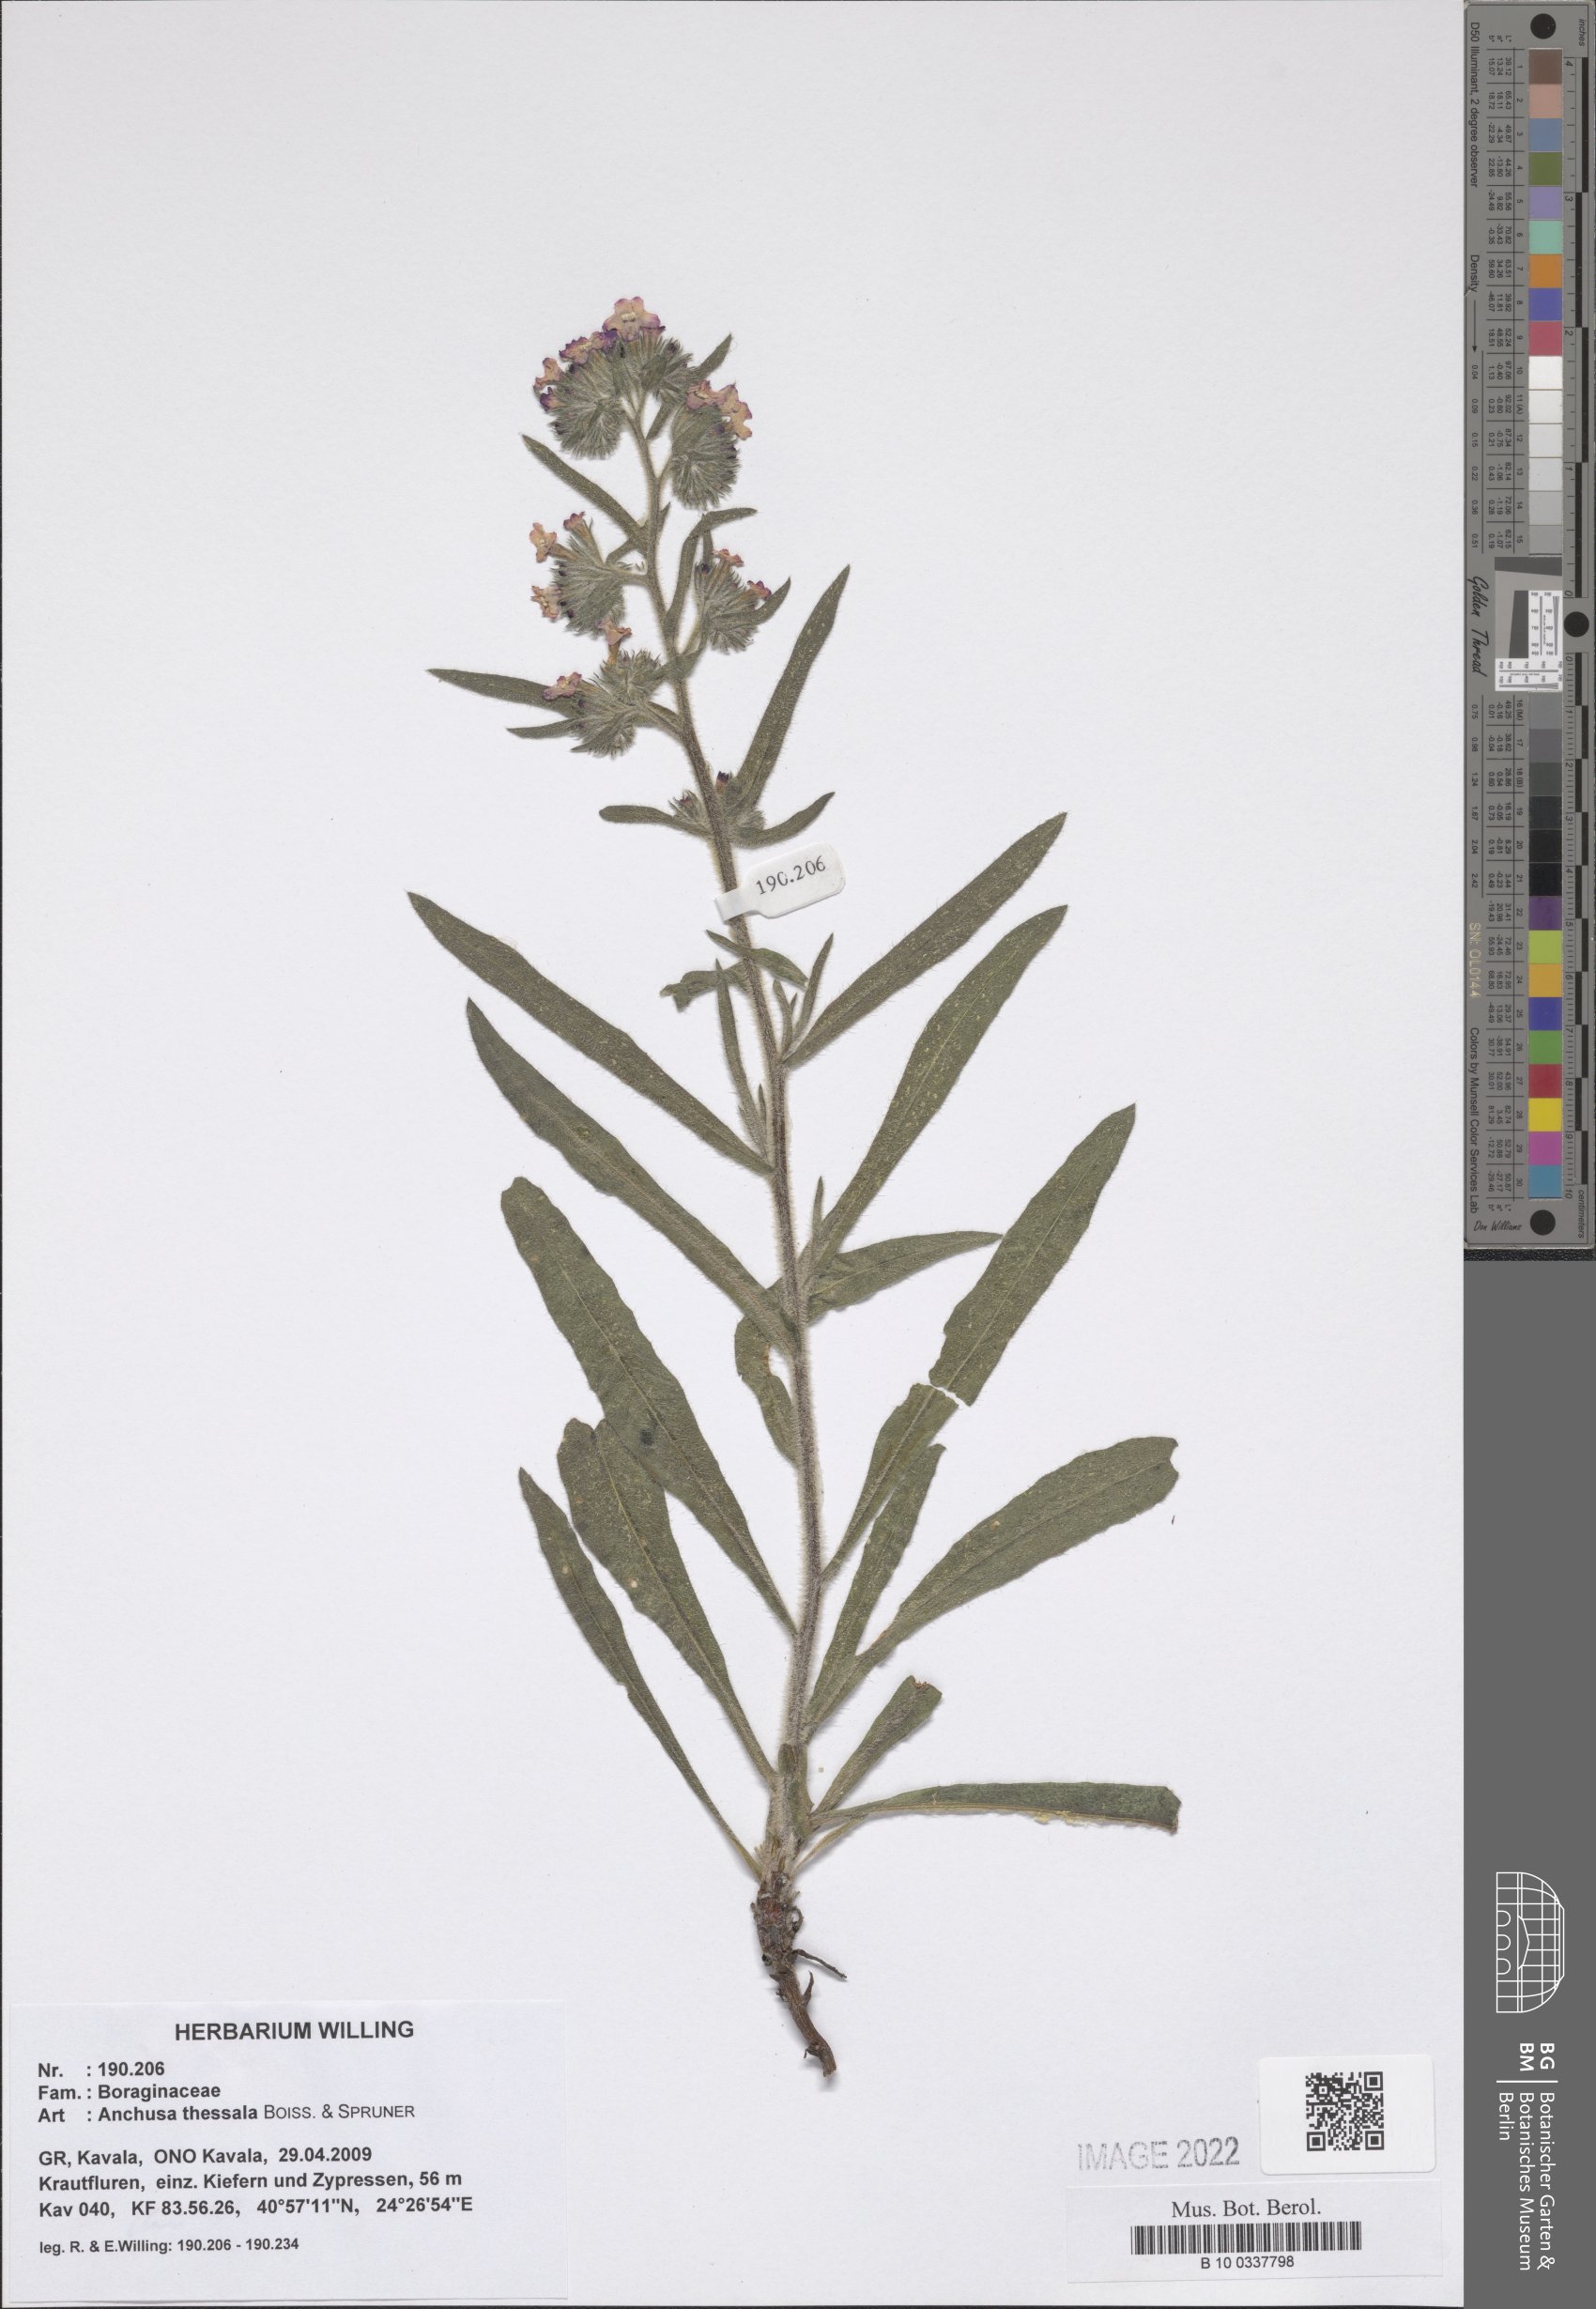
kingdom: Plantae
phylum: Tracheophyta
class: Magnoliopsida
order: Boraginales
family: Boraginaceae
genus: Anchusa
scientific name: Anchusa thessala
